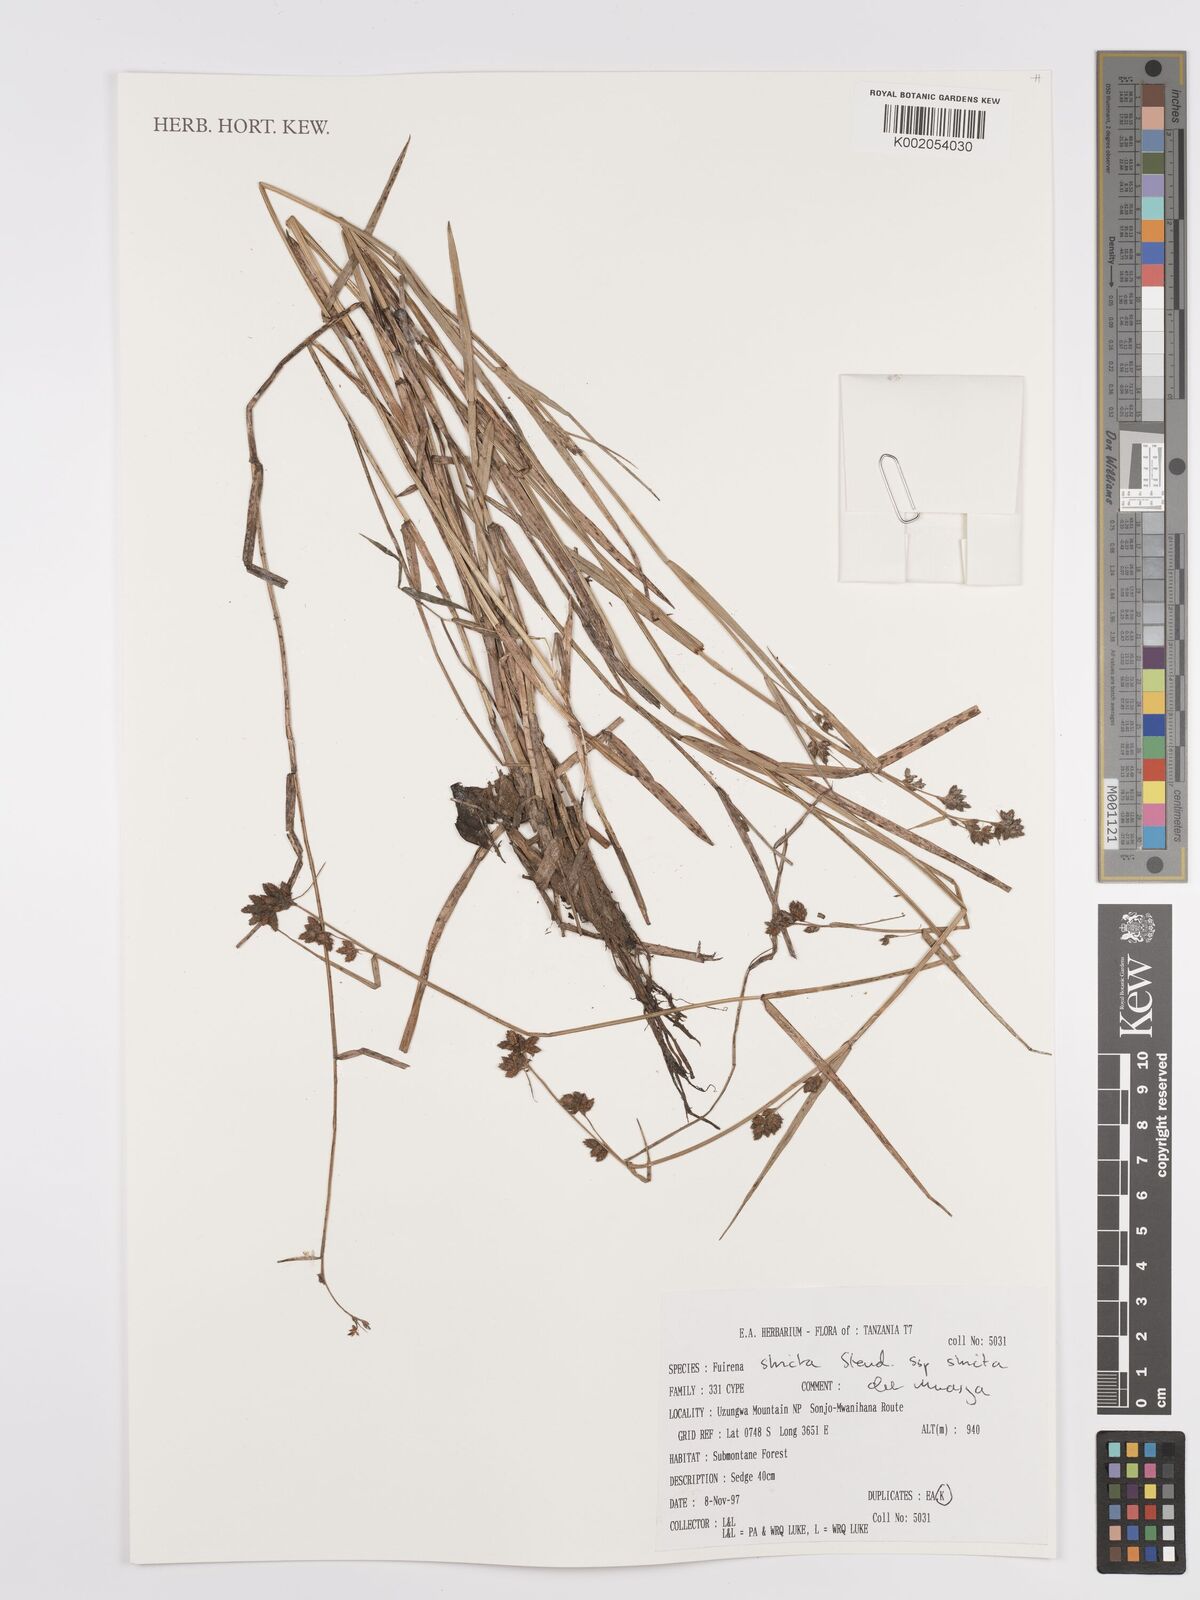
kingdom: Plantae
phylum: Tracheophyta
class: Liliopsida
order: Poales
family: Cyperaceae
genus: Fuirena
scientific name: Fuirena stricta
